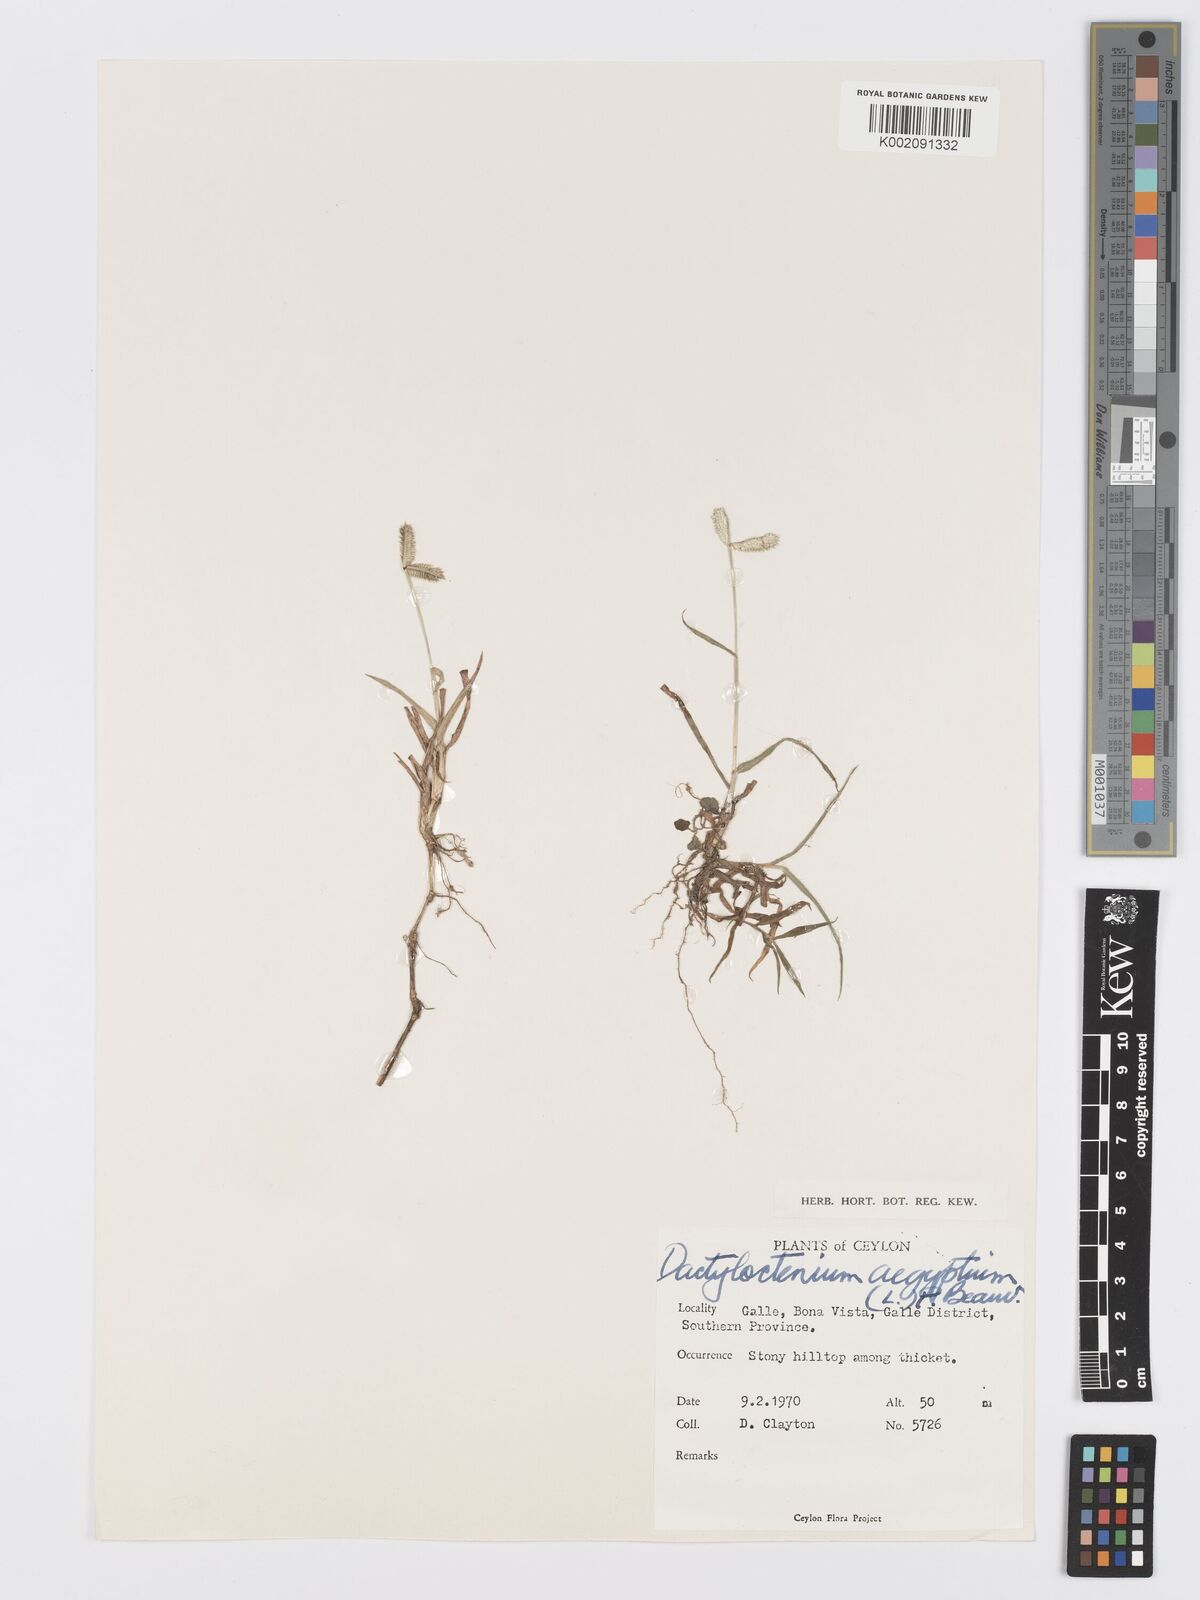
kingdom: Plantae
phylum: Tracheophyta
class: Liliopsida
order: Poales
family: Poaceae
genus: Dactyloctenium
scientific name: Dactyloctenium aegyptium
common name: Egyptian grass
